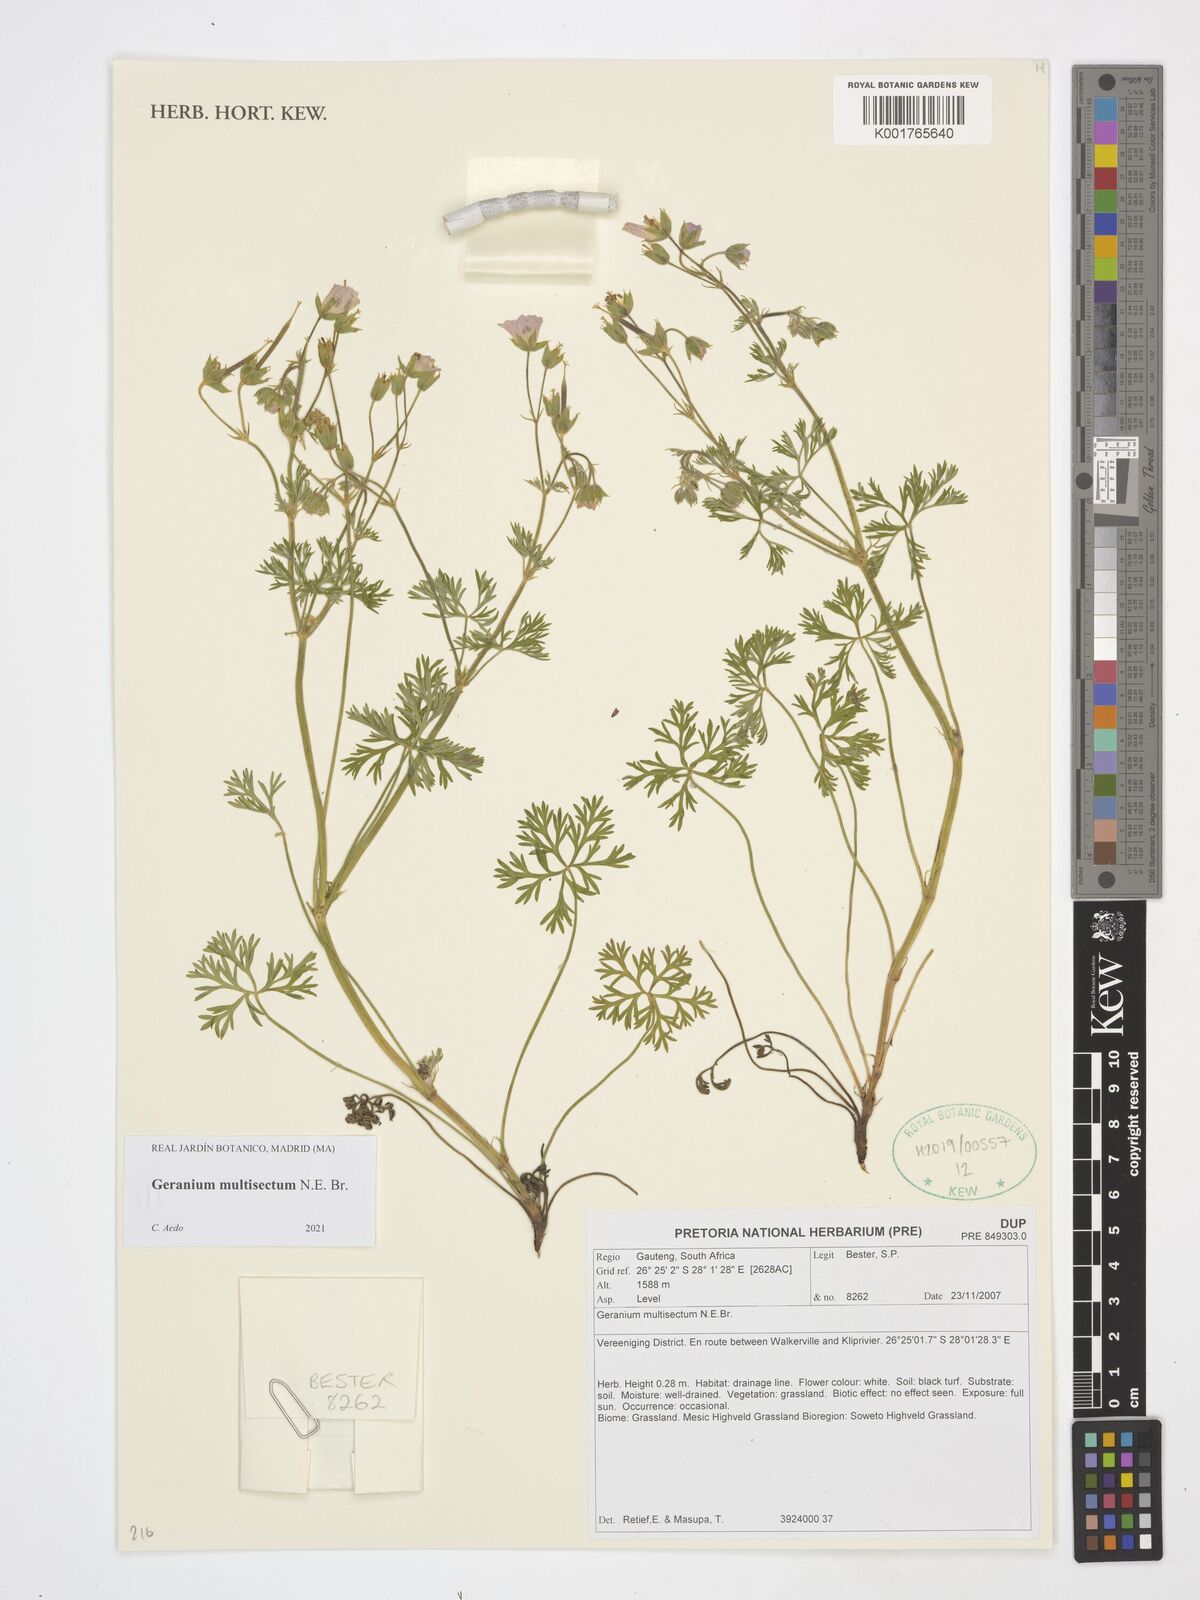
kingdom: Plantae
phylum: Tracheophyta
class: Magnoliopsida
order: Geraniales
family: Geraniaceae
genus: Geranium
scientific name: Geranium multisectum
